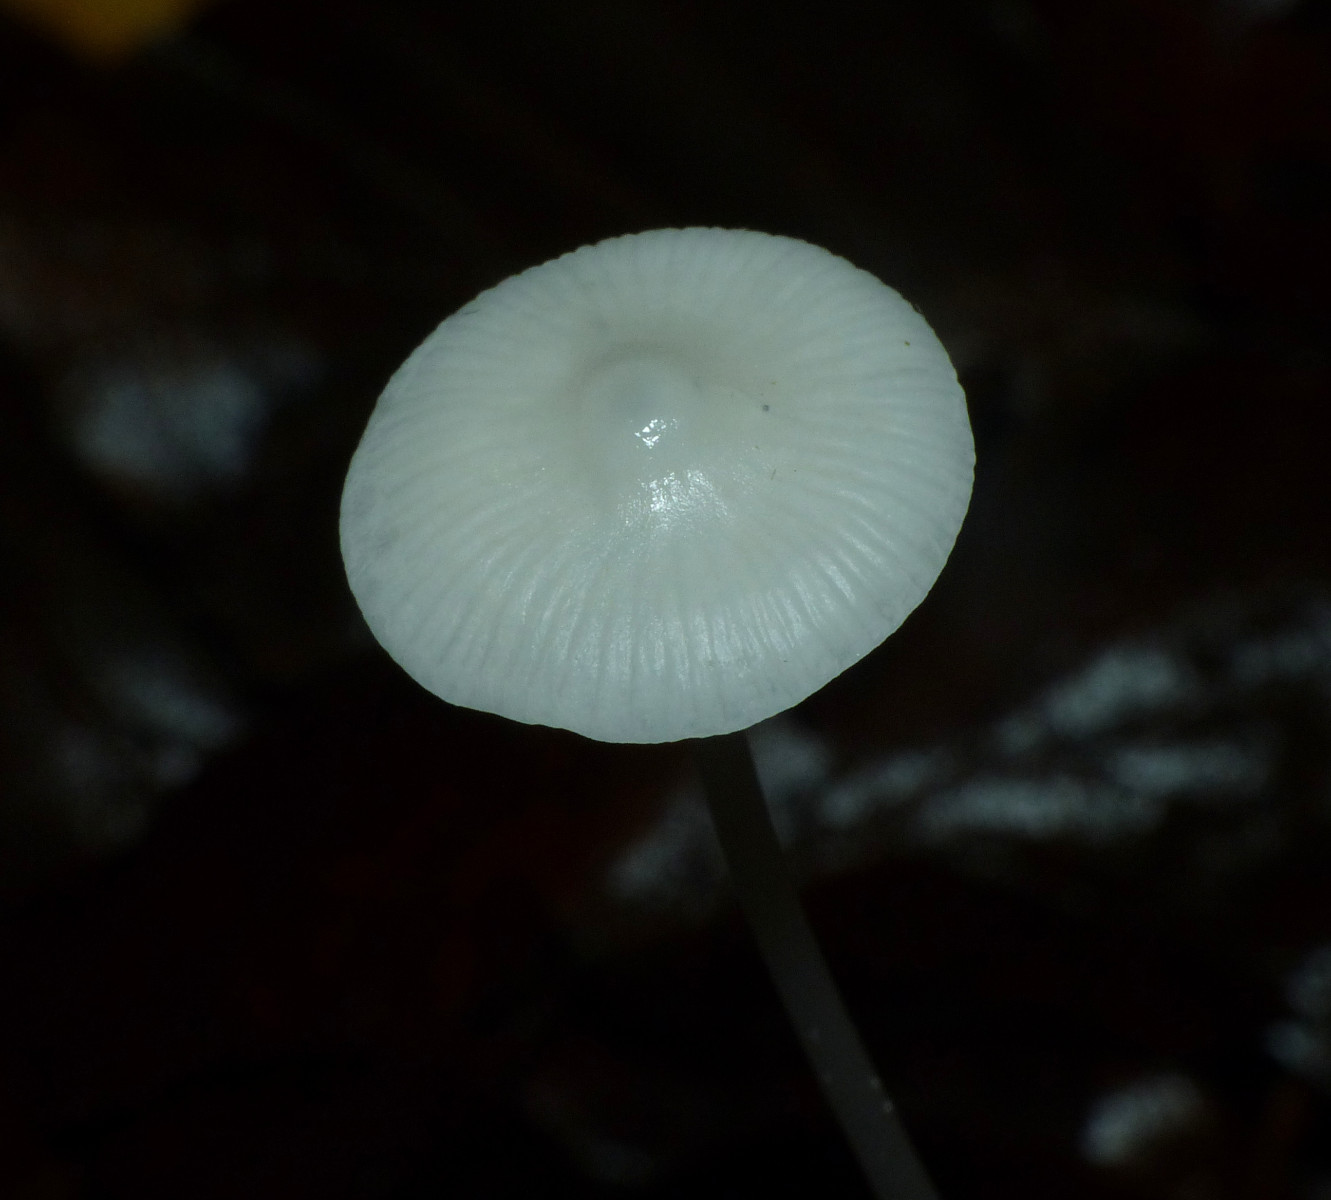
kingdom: Fungi
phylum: Basidiomycota
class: Agaricomycetes
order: Agaricales
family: Mycenaceae
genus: Mycena
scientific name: Mycena
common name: huesvamp
